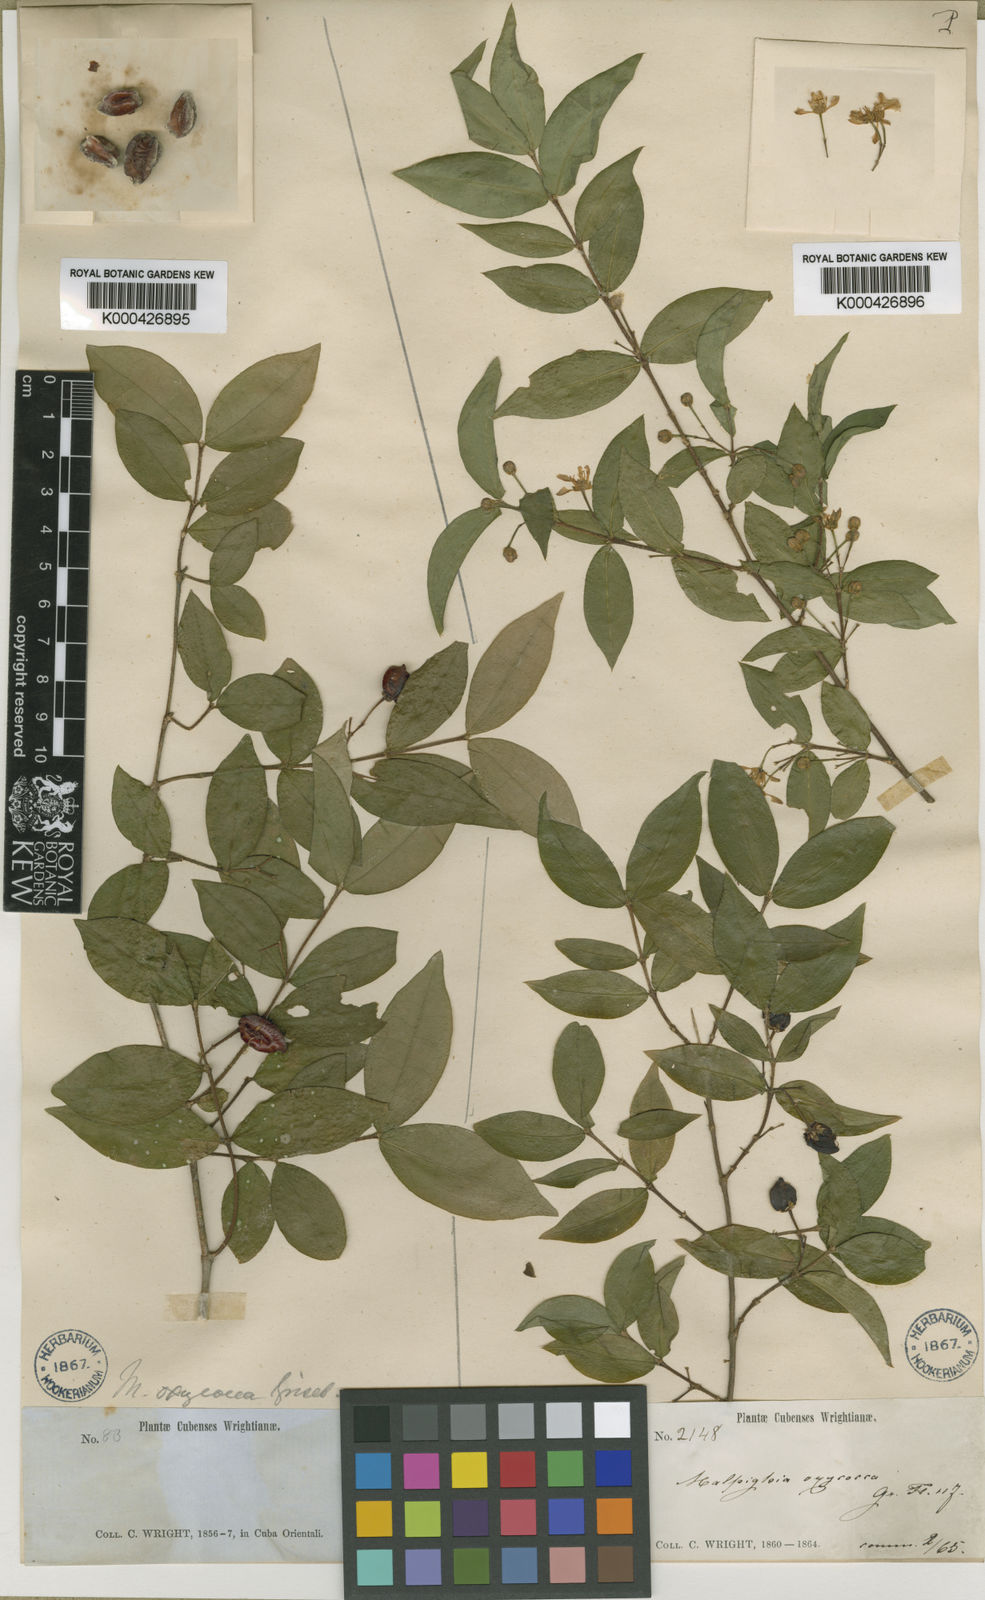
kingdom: Plantae
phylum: Tracheophyta
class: Magnoliopsida
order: Malpighiales
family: Malpighiaceae
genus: Malpighia
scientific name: Malpighia glabra
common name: Barbados cherry
